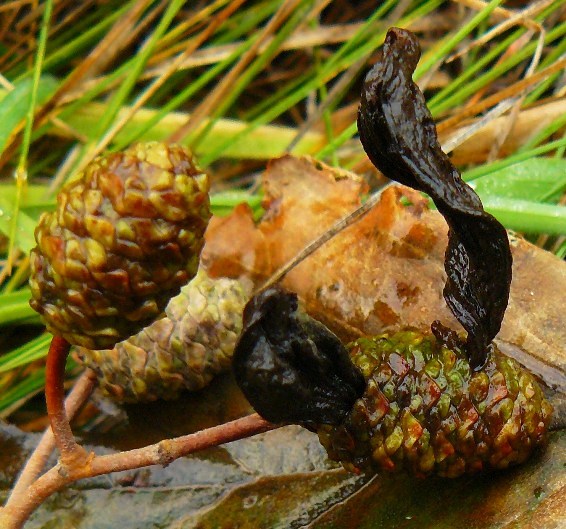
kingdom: Fungi
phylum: Ascomycota
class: Taphrinomycetes
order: Taphrinales
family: Taphrinaceae
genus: Taphrina
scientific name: Taphrina alni
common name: Alder tongue
